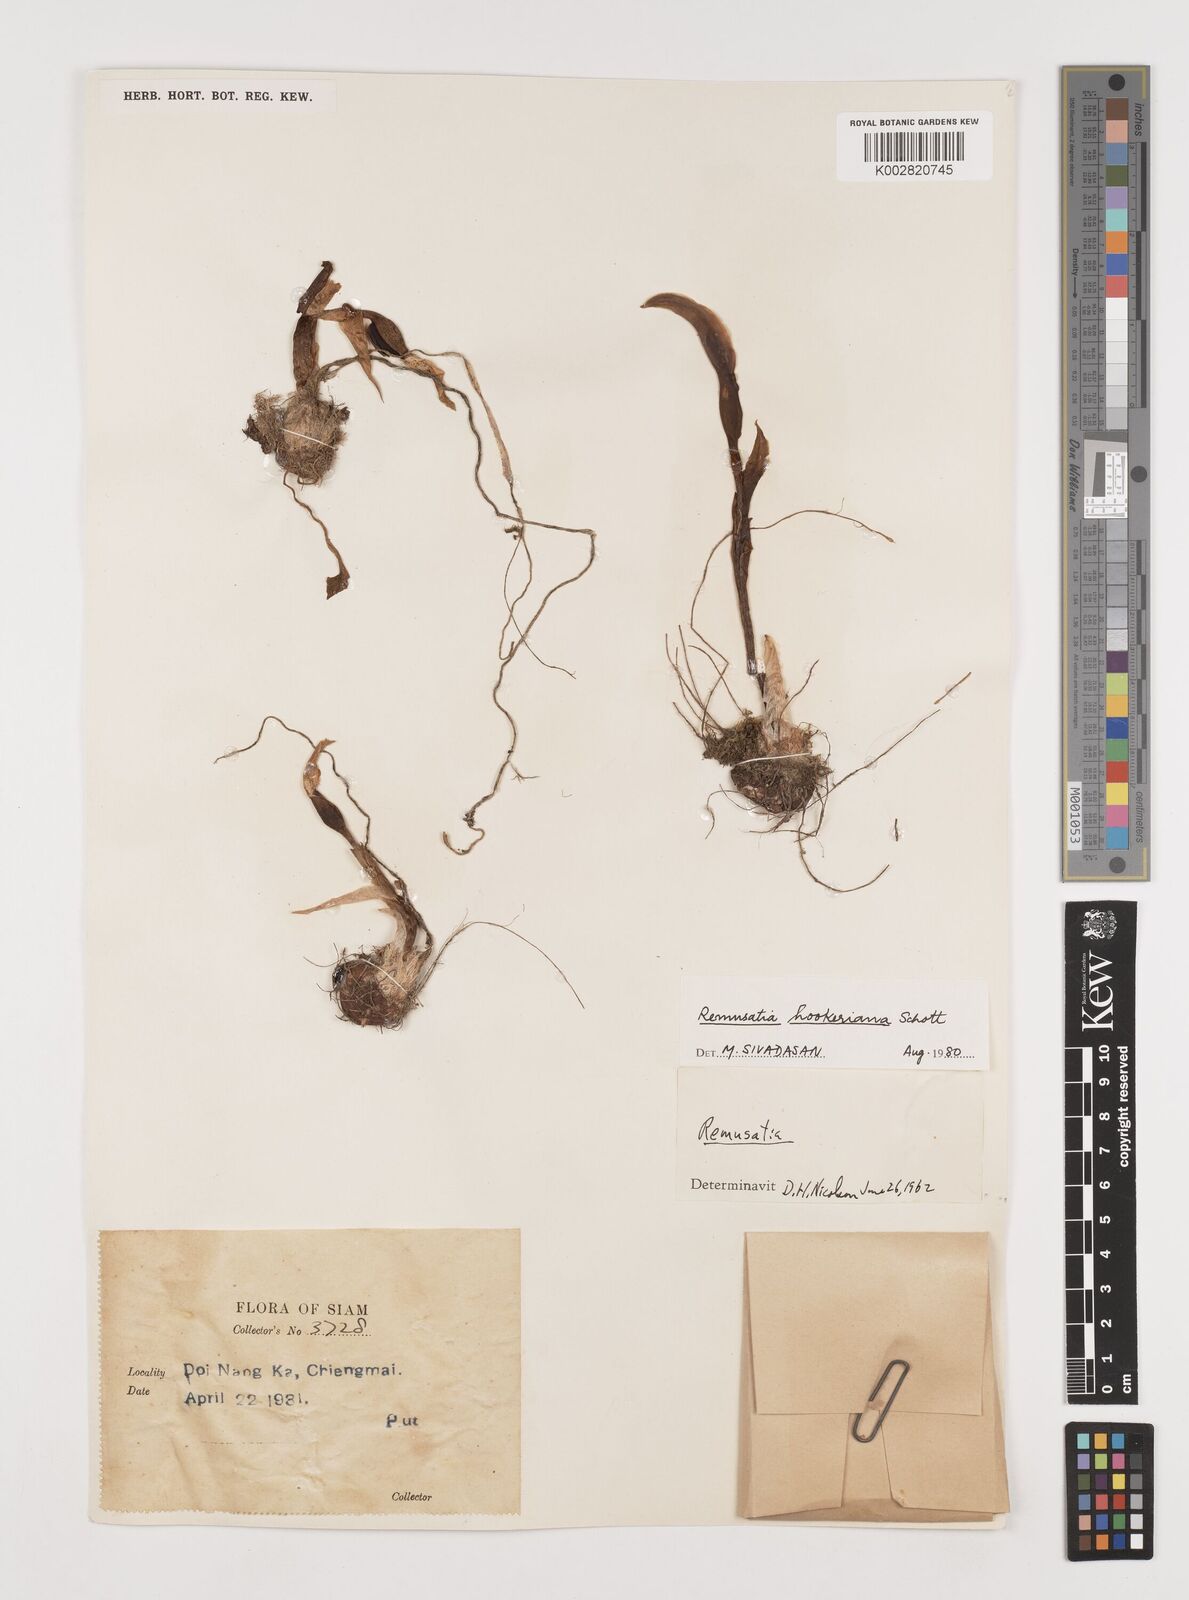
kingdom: Plantae
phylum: Tracheophyta
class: Liliopsida
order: Alismatales
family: Araceae
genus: Remusatia
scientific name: Remusatia hookeriana
